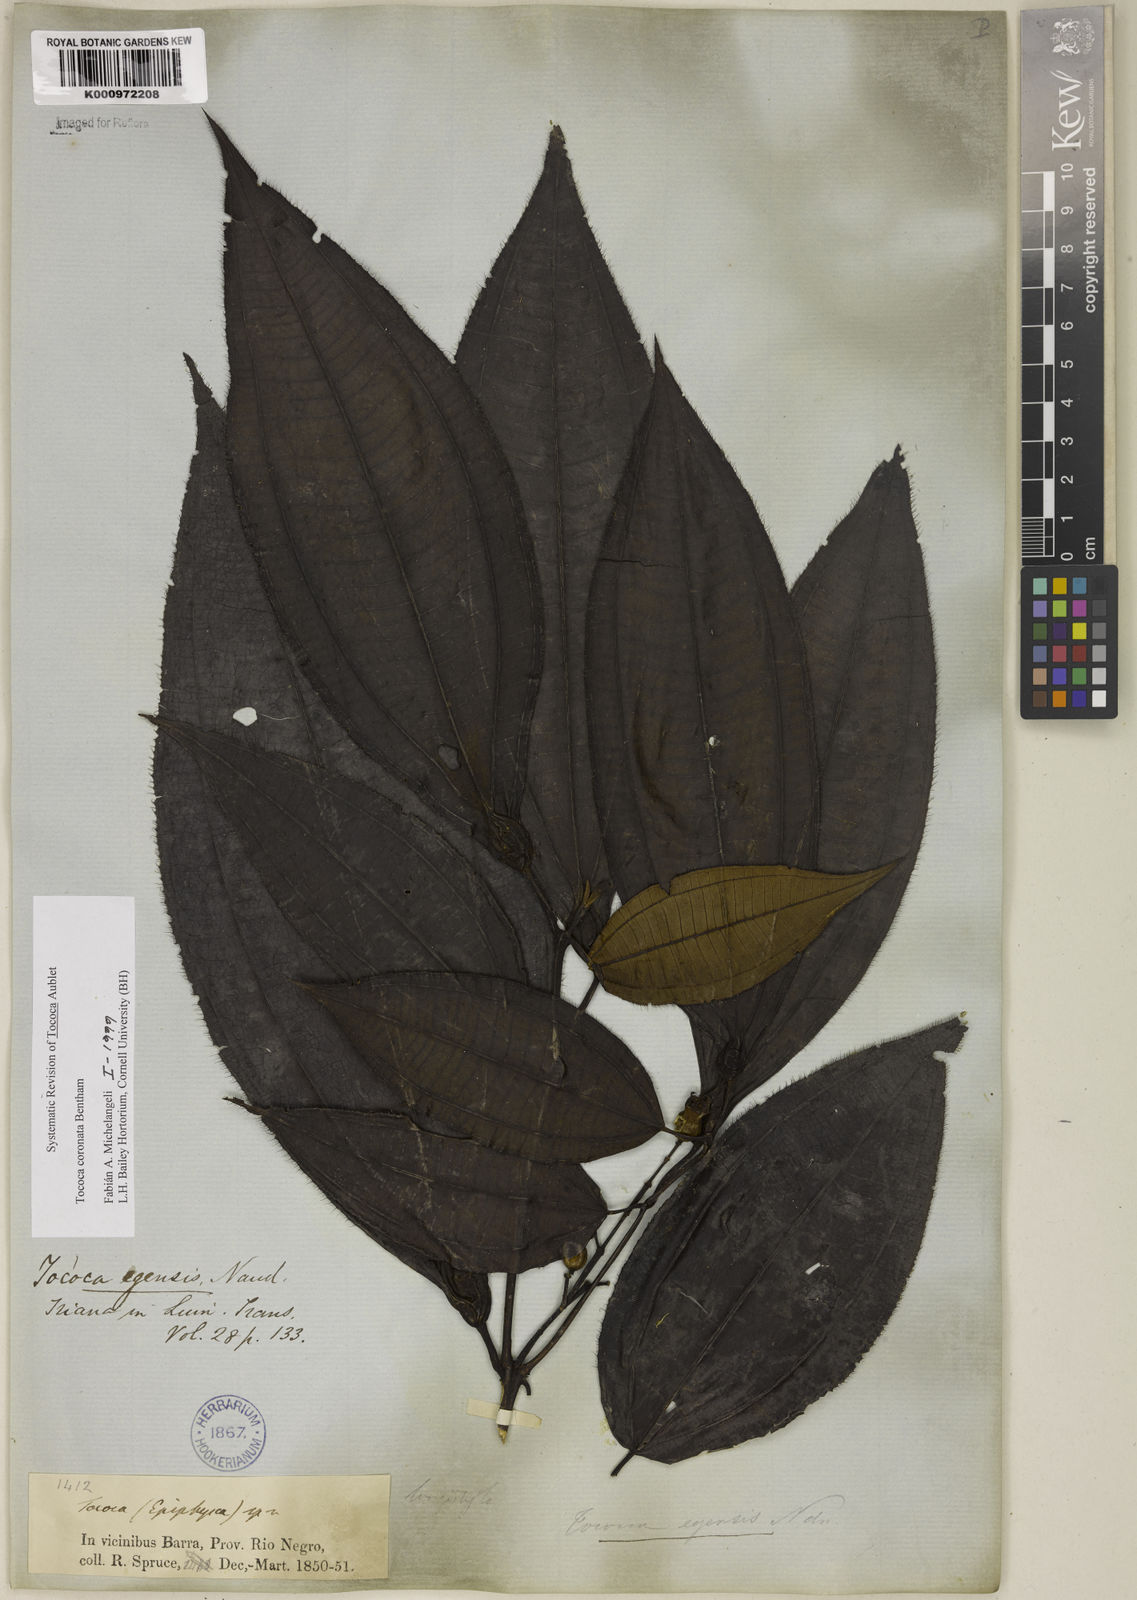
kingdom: Plantae
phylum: Tracheophyta
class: Magnoliopsida
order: Myrtales
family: Melastomataceae
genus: Miconia
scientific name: Miconia tococoronata
